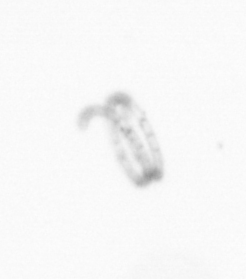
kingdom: Chromista
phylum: Ochrophyta
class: Bacillariophyceae
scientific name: Bacillariophyceae
